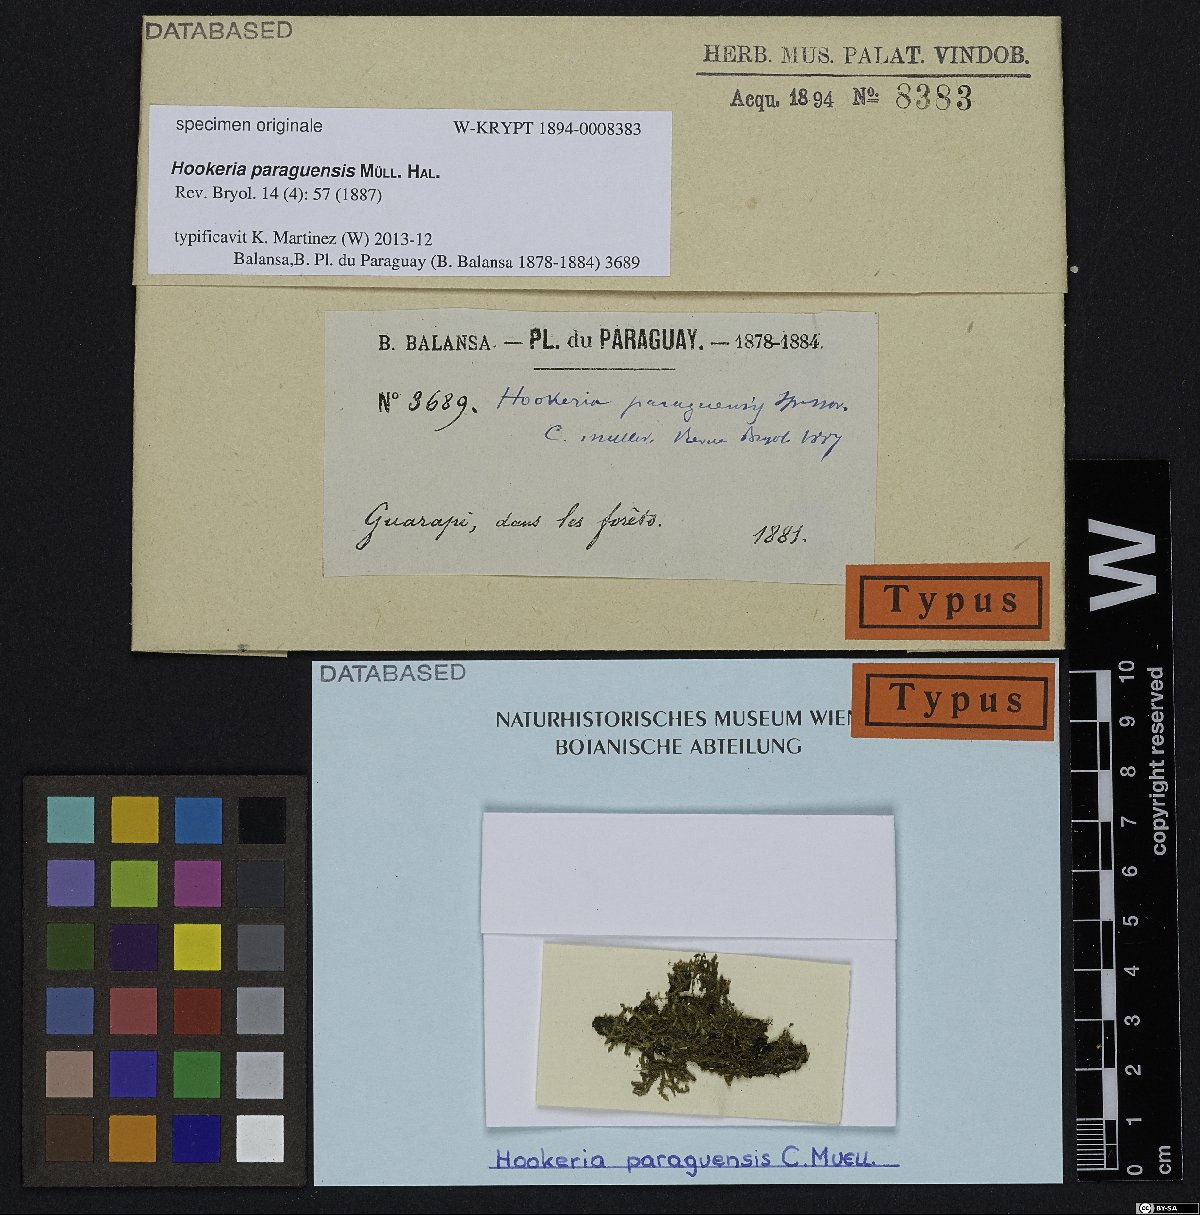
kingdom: Plantae
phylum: Bryophyta
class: Bryopsida
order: Hookeriales
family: Hookeriaceae
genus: Hookeria
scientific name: Hookeria
